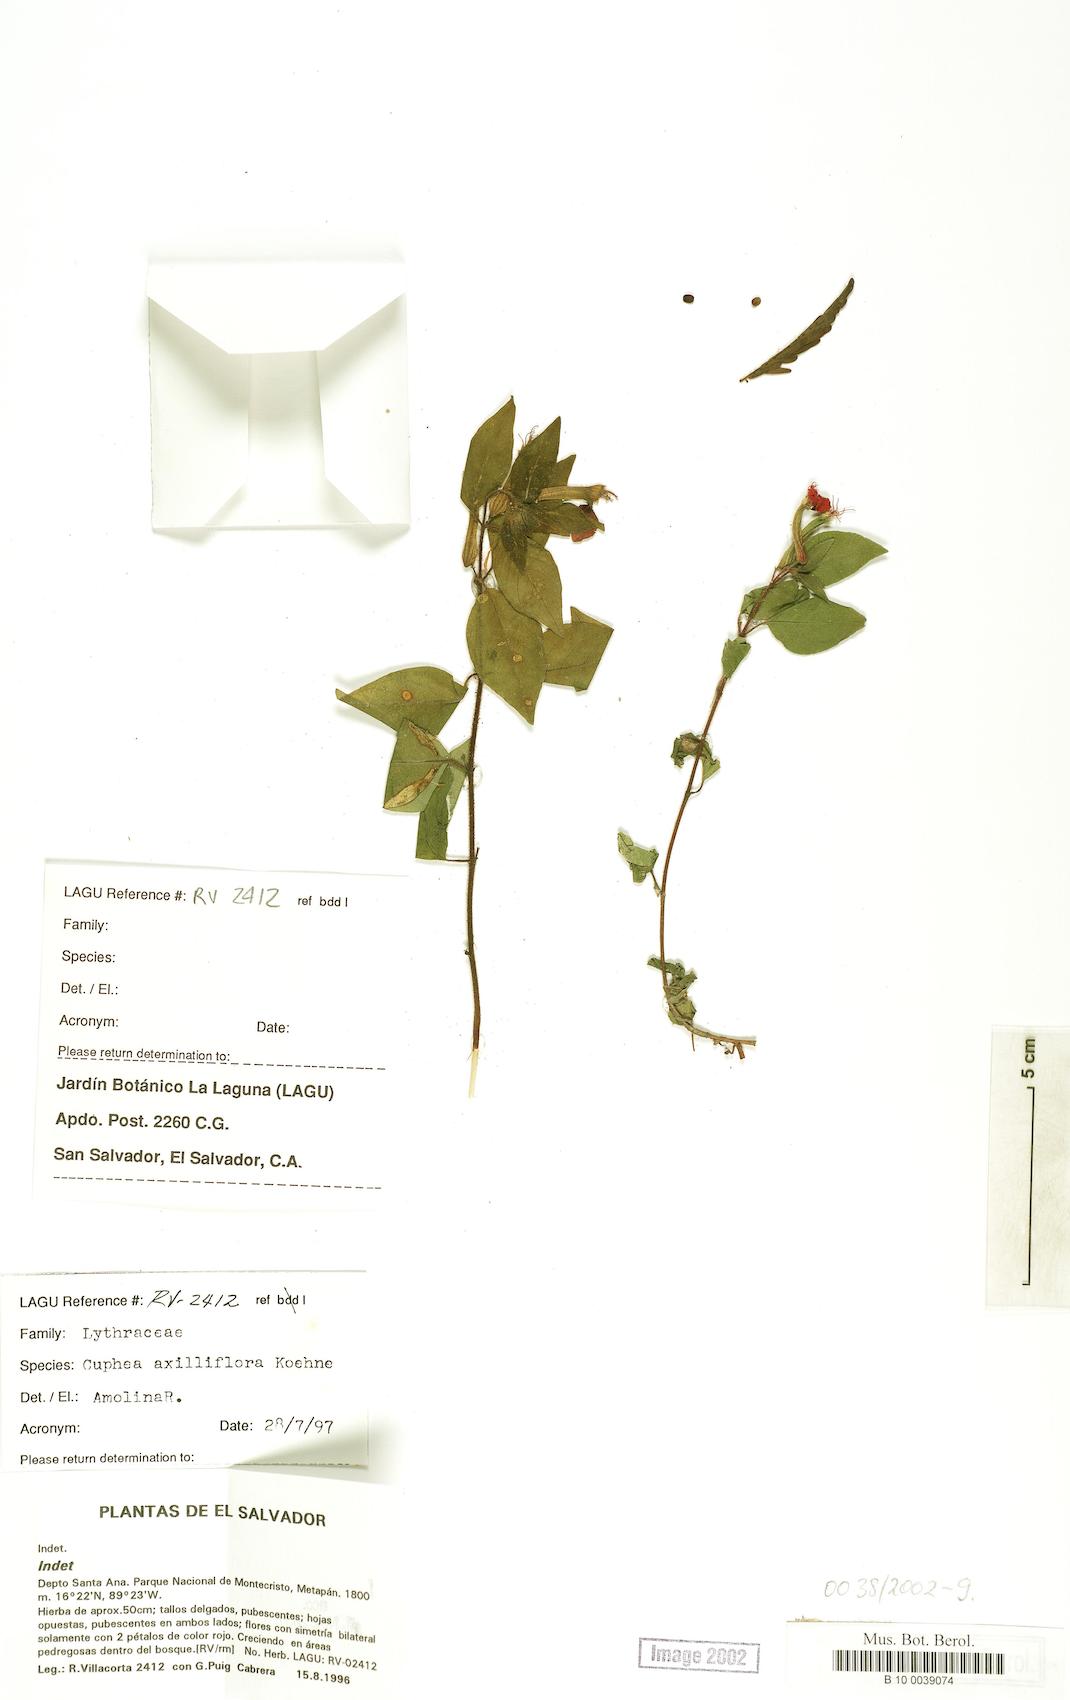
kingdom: Plantae
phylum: Tracheophyta
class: Magnoliopsida
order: Myrtales
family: Lythraceae
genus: Cuphea
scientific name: Cuphea appendiculata
